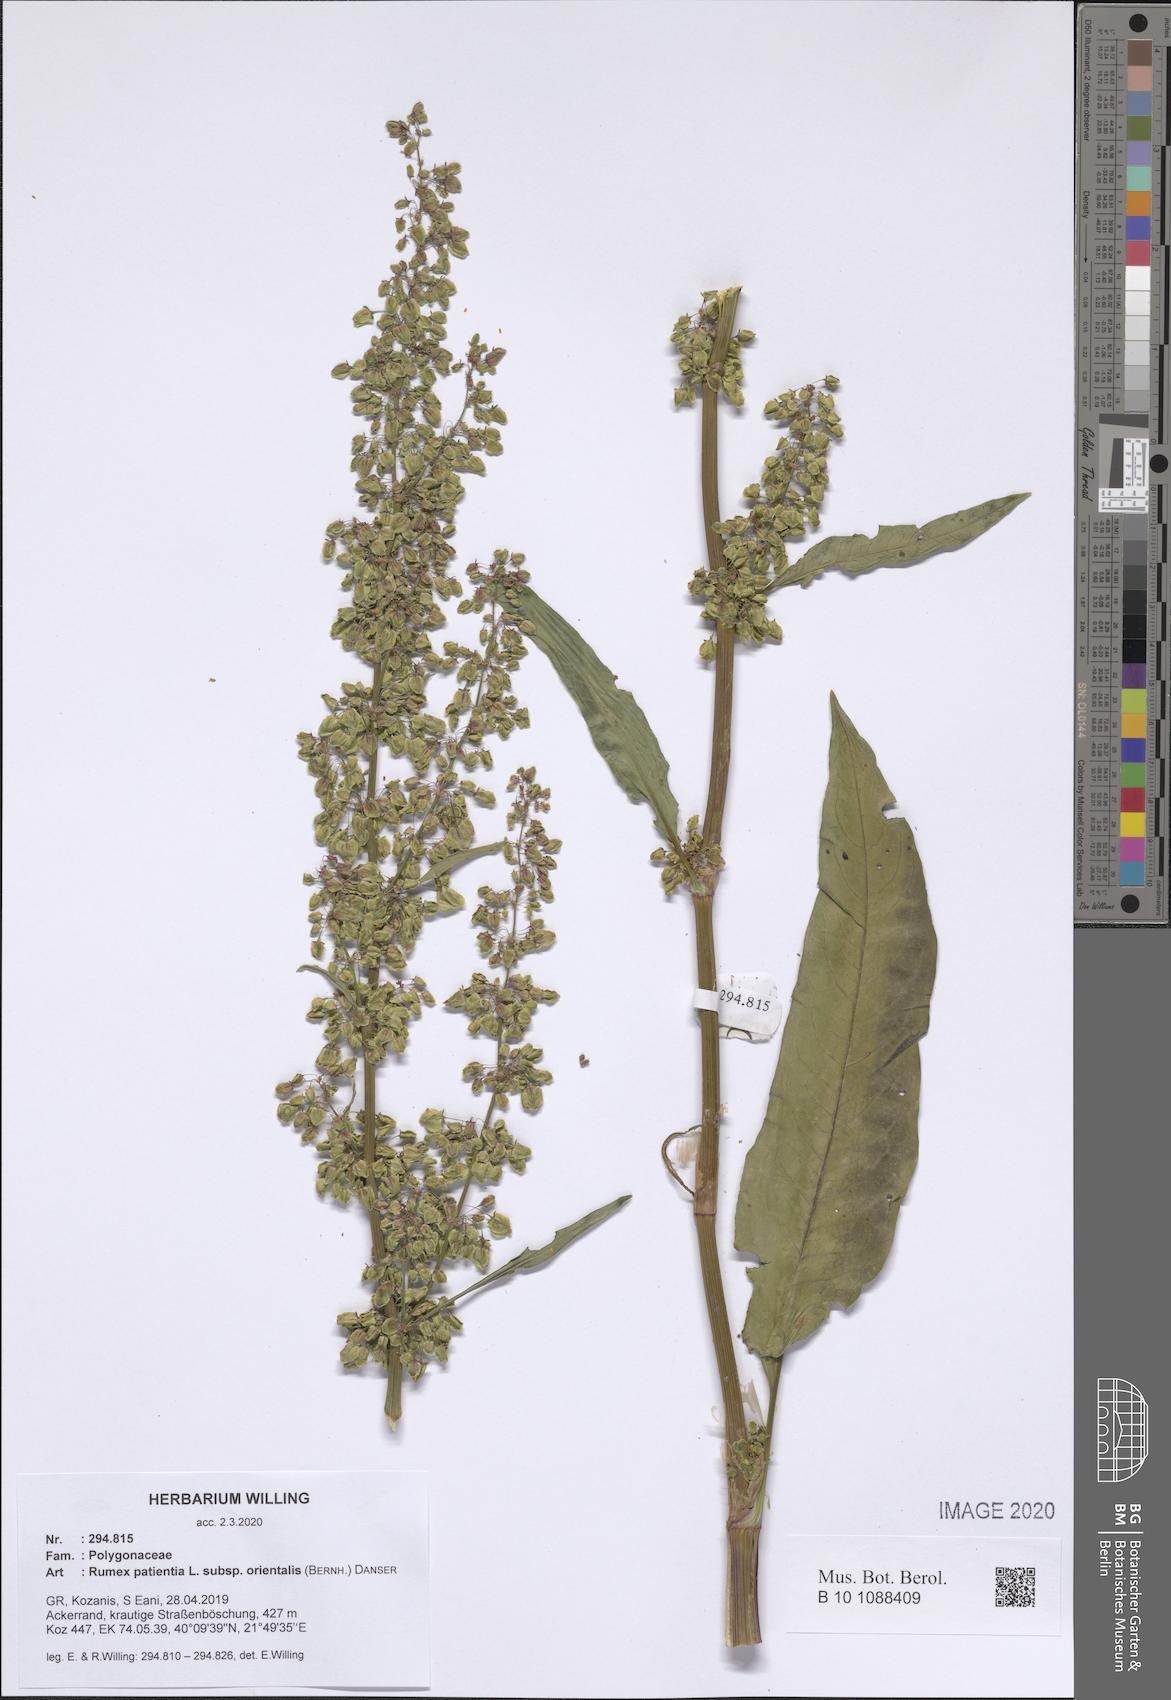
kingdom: Plantae
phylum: Tracheophyta
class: Magnoliopsida
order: Caryophyllales
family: Polygonaceae
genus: Rumex
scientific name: Rumex patientia
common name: Patience dock
